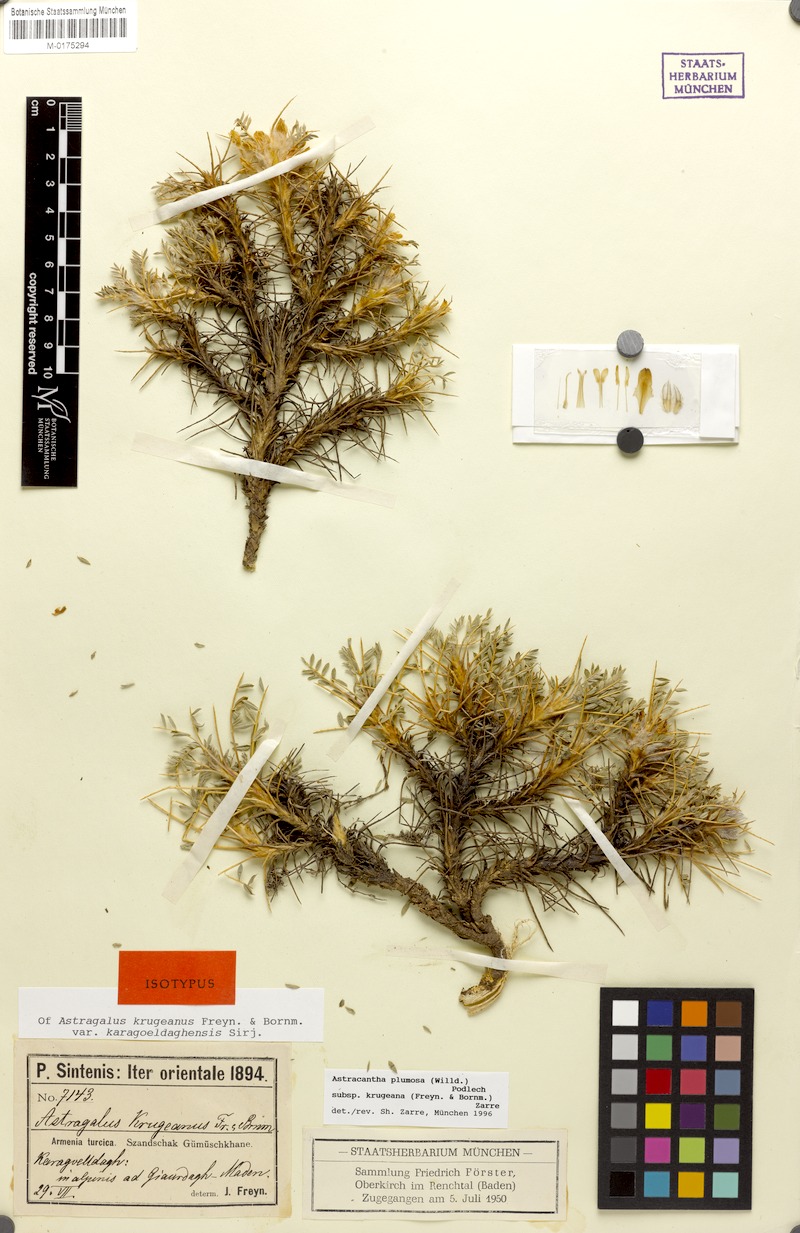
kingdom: Plantae
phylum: Tracheophyta
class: Magnoliopsida
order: Fabales
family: Fabaceae
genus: Astragalus
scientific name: Astragalus plumosus
